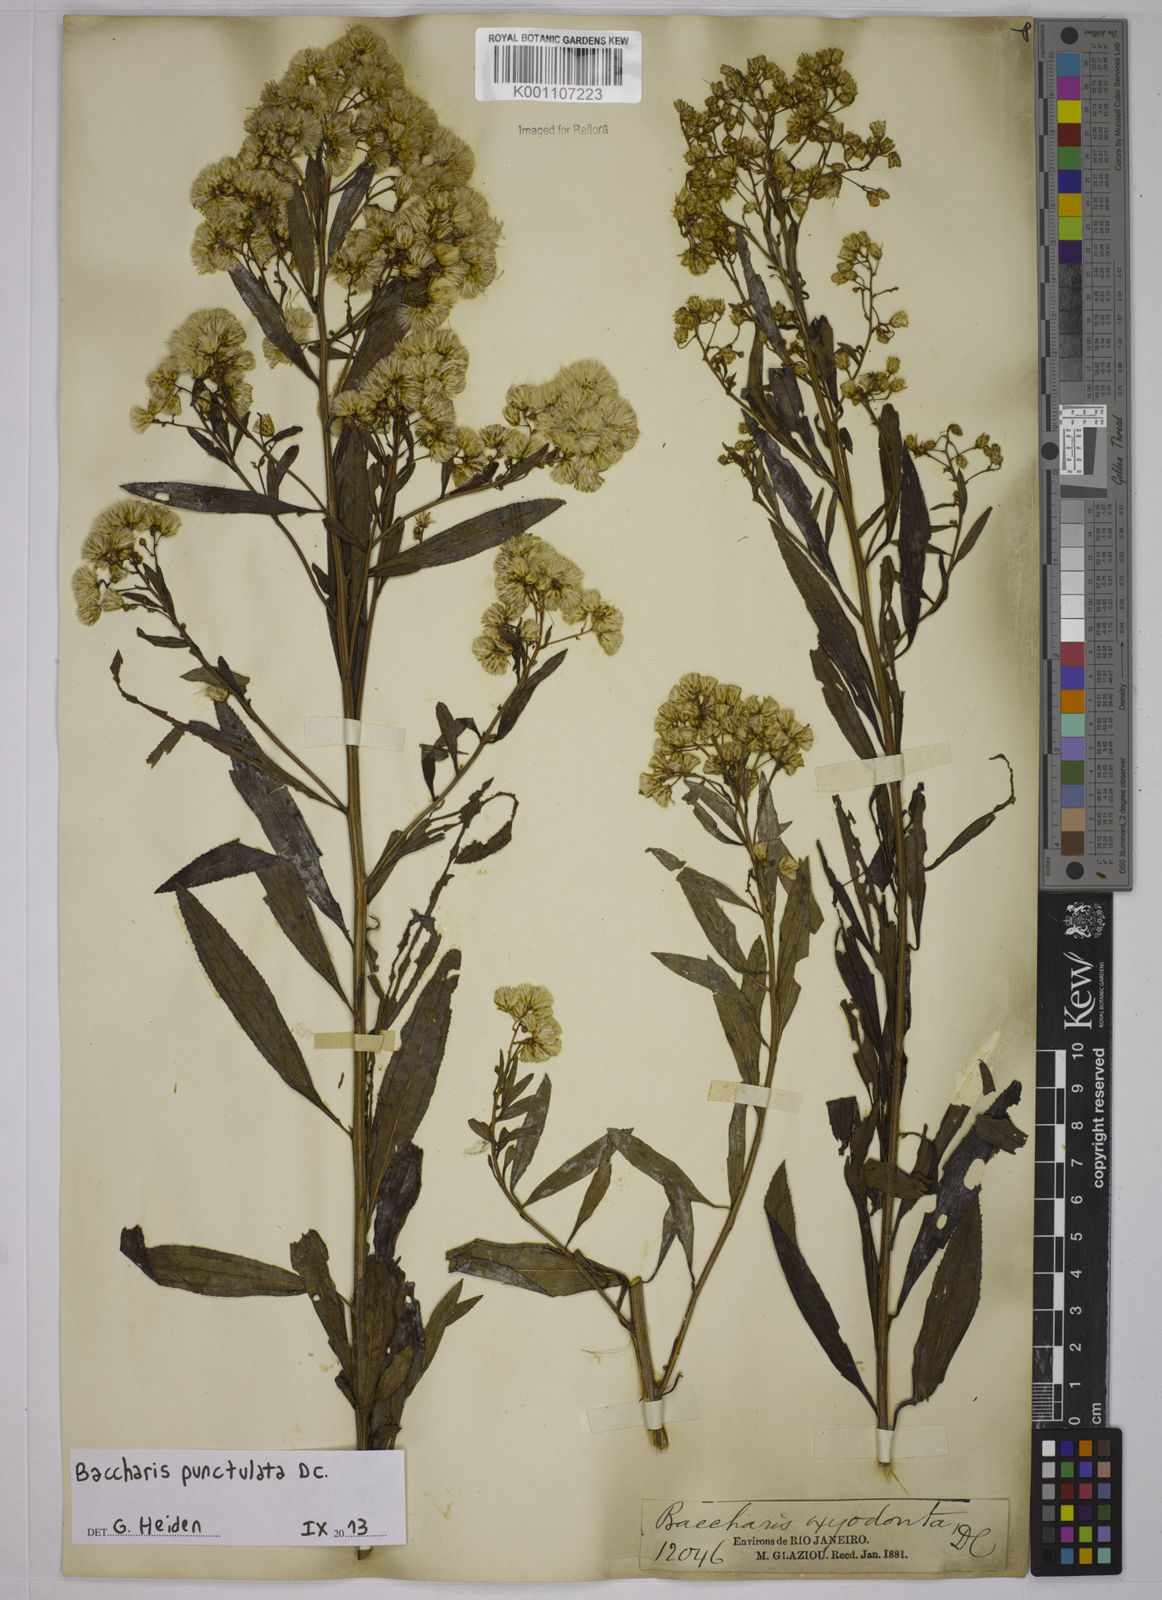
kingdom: Plantae
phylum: Tracheophyta
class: Magnoliopsida
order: Asterales
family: Asteraceae
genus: Baccharis
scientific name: Baccharis punctulata
